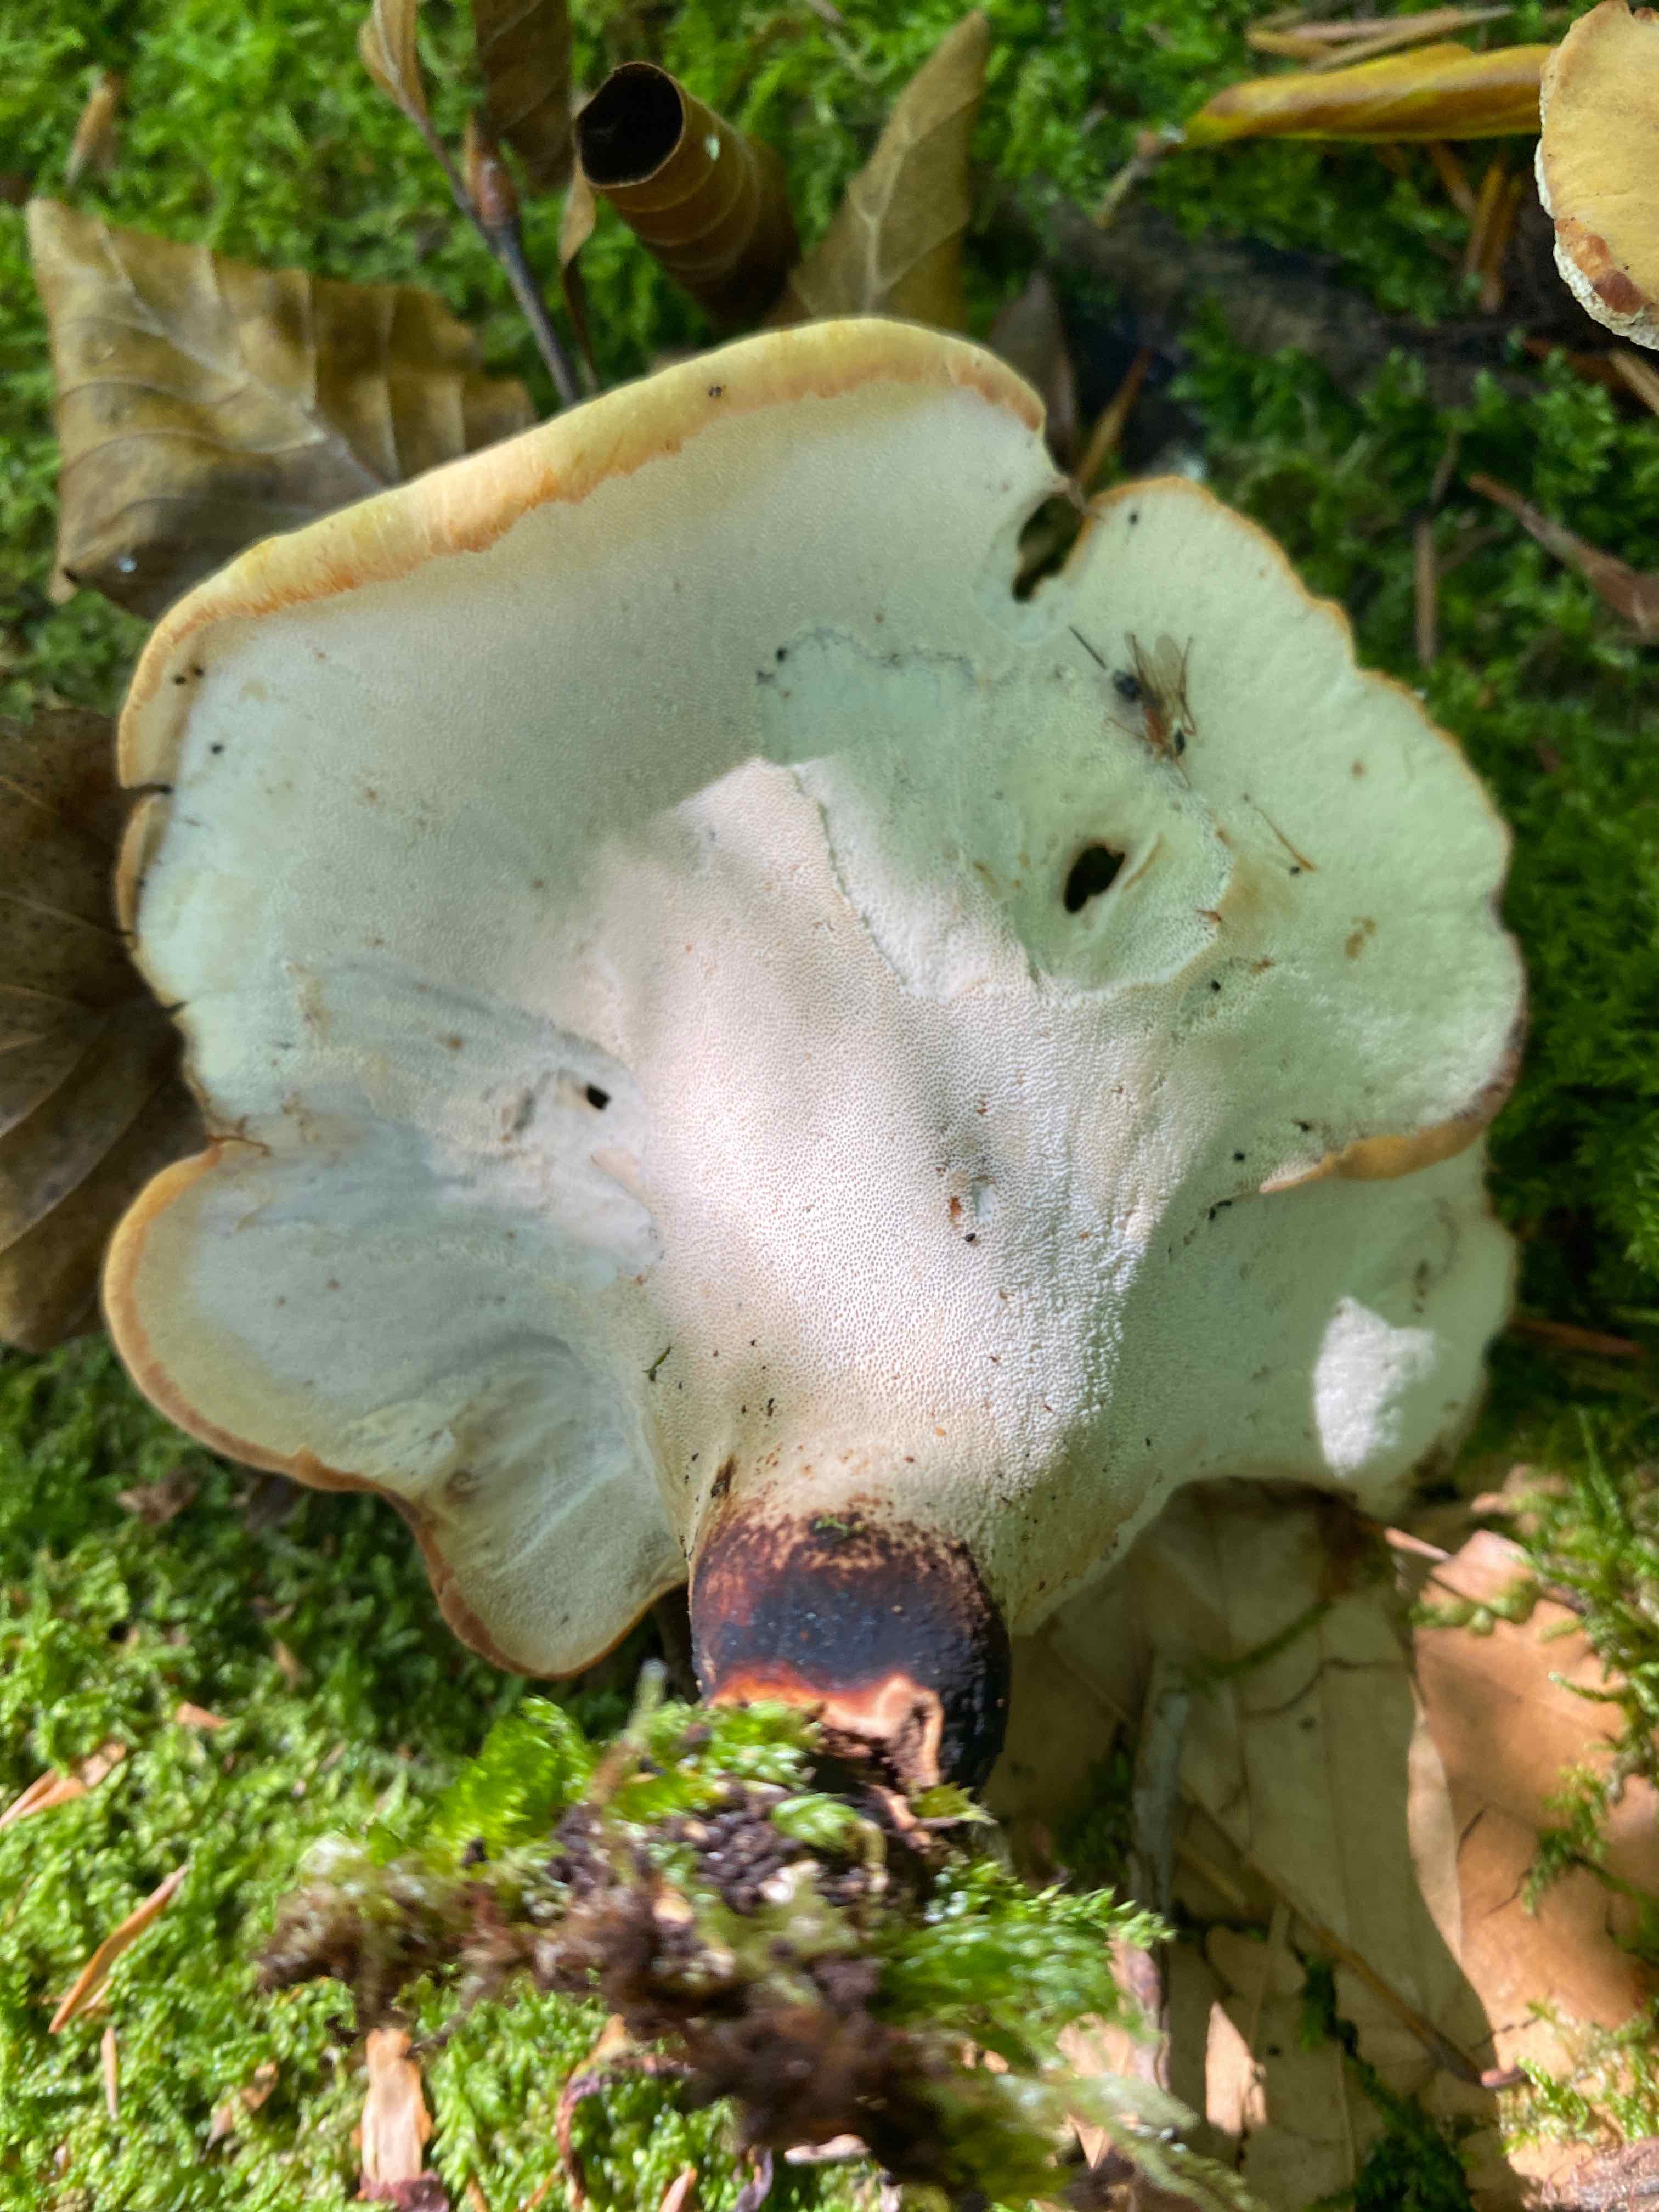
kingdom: Fungi
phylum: Basidiomycota
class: Agaricomycetes
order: Polyporales
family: Polyporaceae
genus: Cerioporus
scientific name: Cerioporus varius
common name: foranderlig stilkporesvamp
